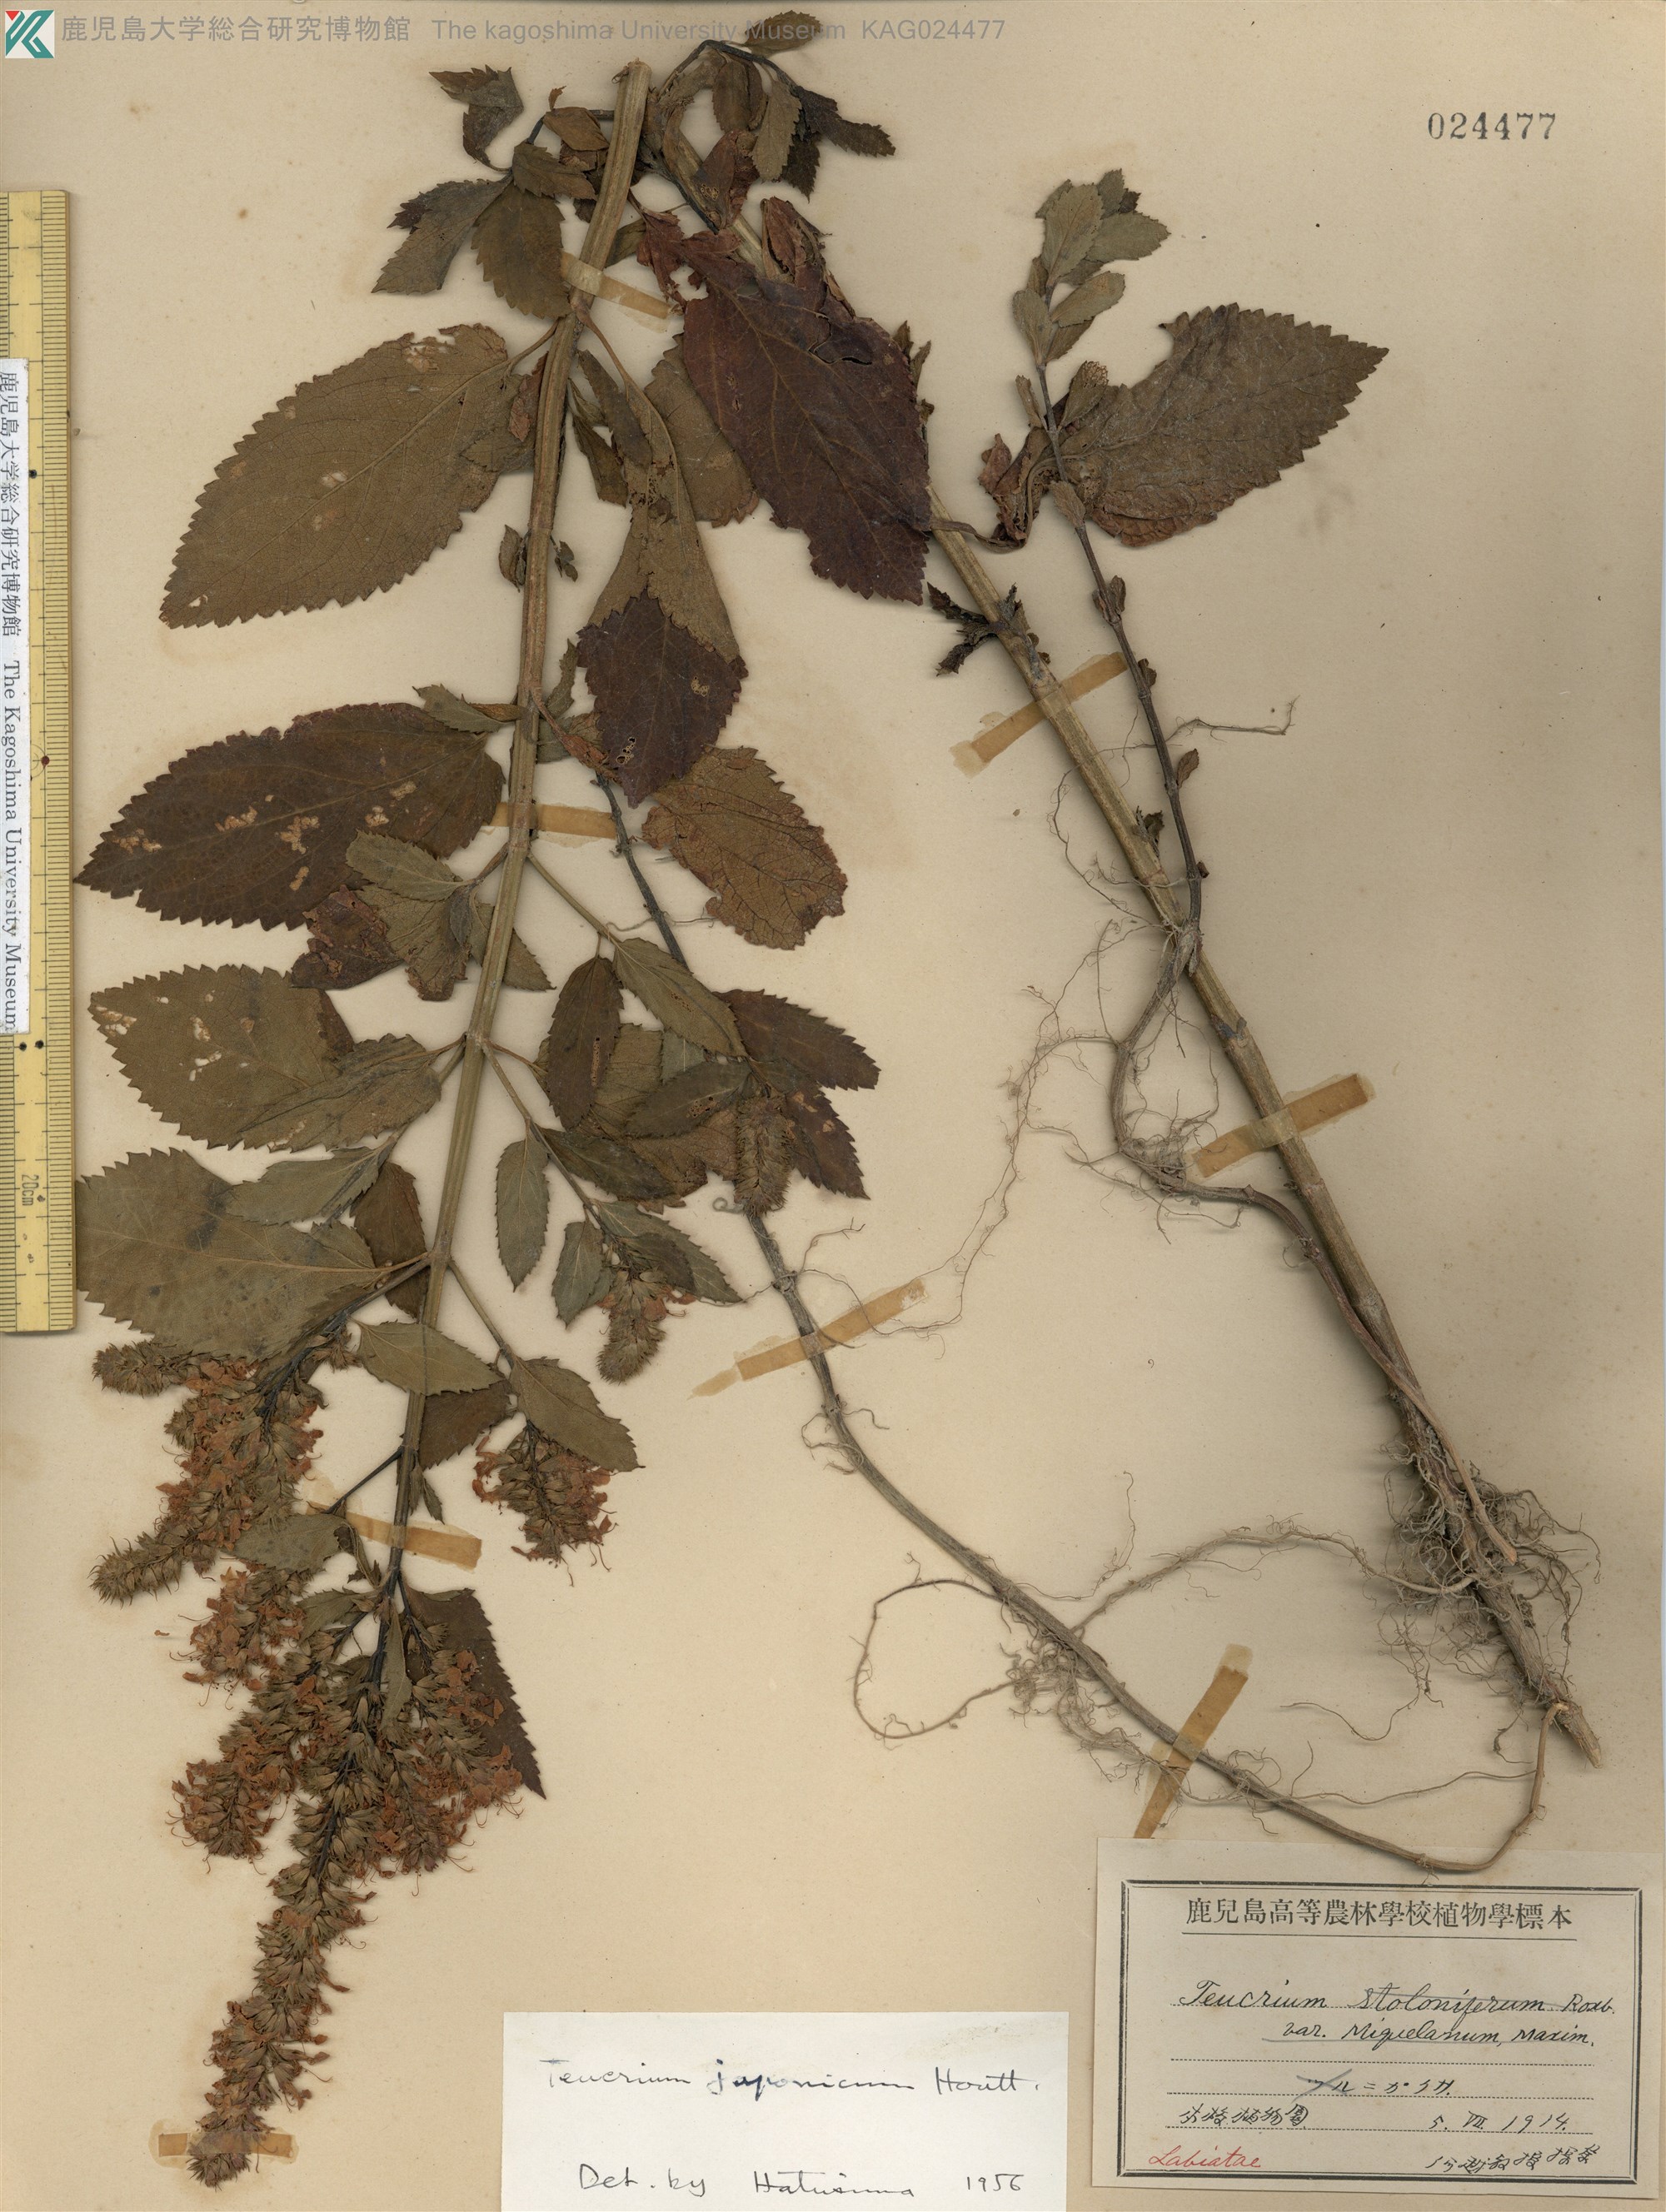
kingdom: Plantae
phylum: Tracheophyta
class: Magnoliopsida
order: Lamiales
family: Lamiaceae
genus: Teucrium
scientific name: Teucrium japonicum
